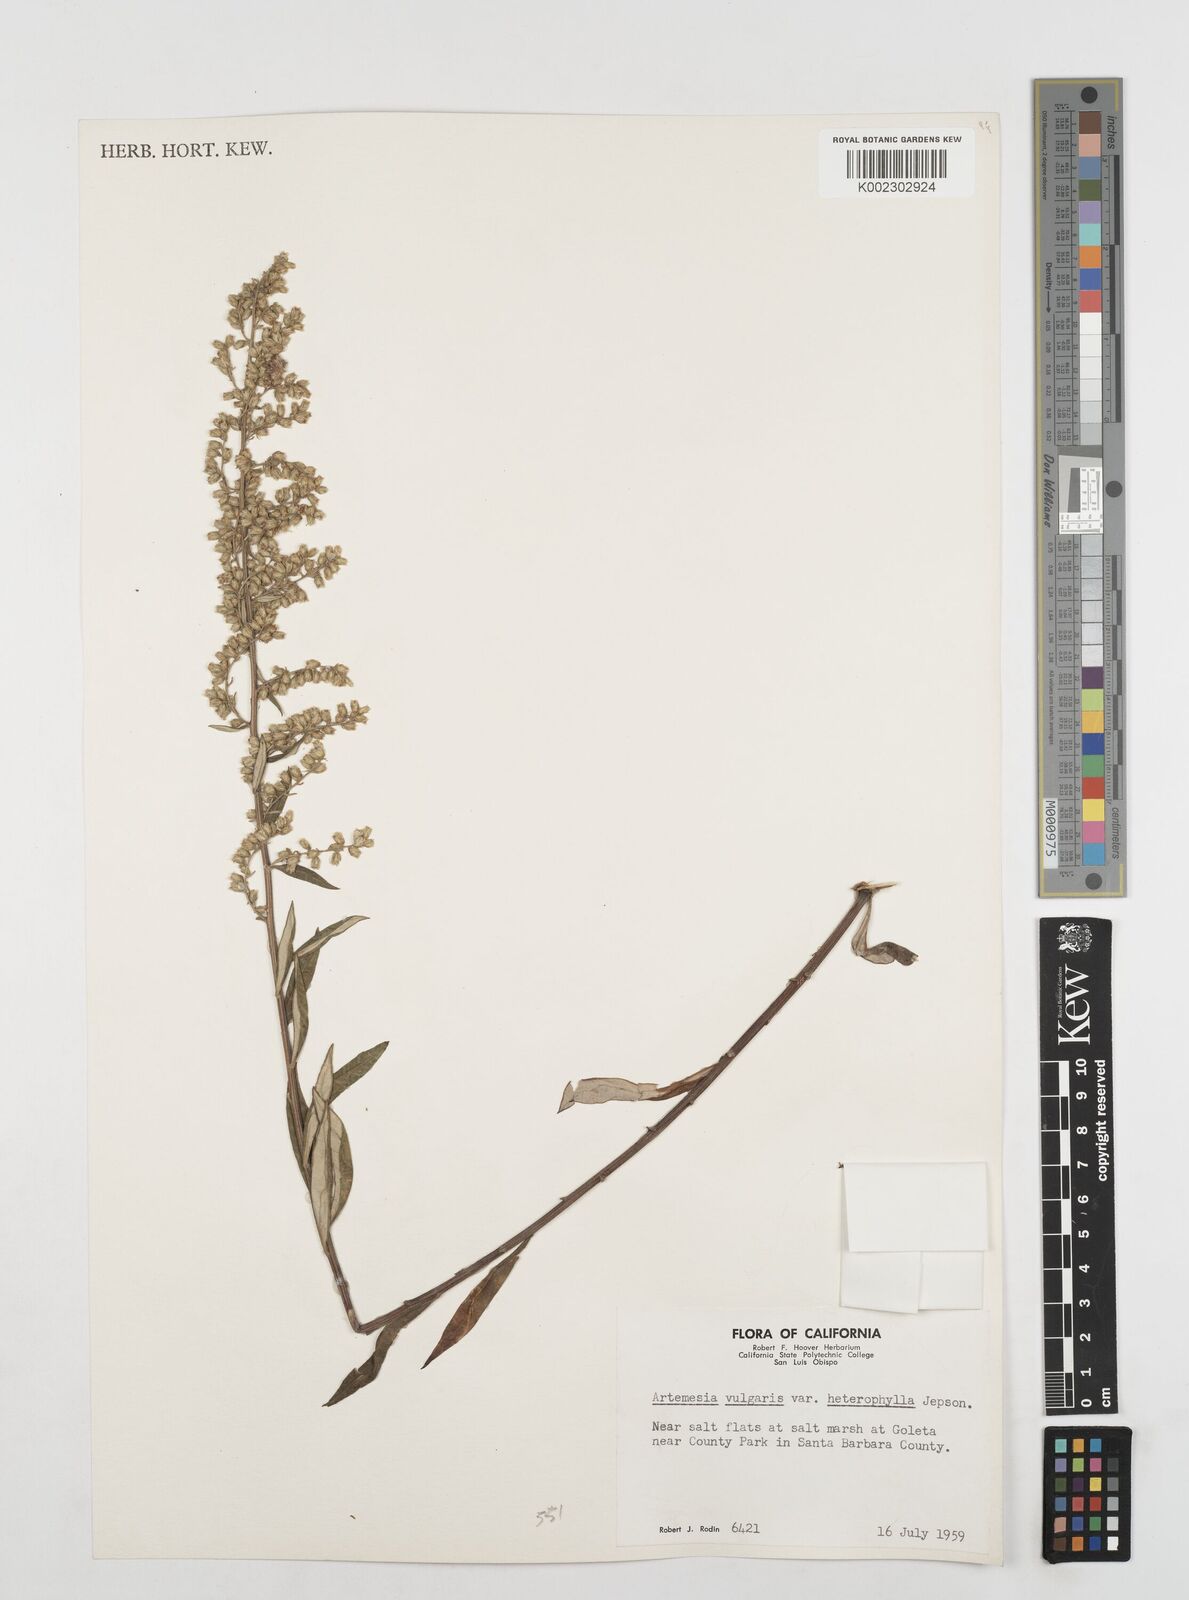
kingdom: Plantae
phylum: Tracheophyta
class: Magnoliopsida
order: Asterales
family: Asteraceae
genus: Artemisia
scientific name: Artemisia douglasiana
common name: Northwest mugwort
